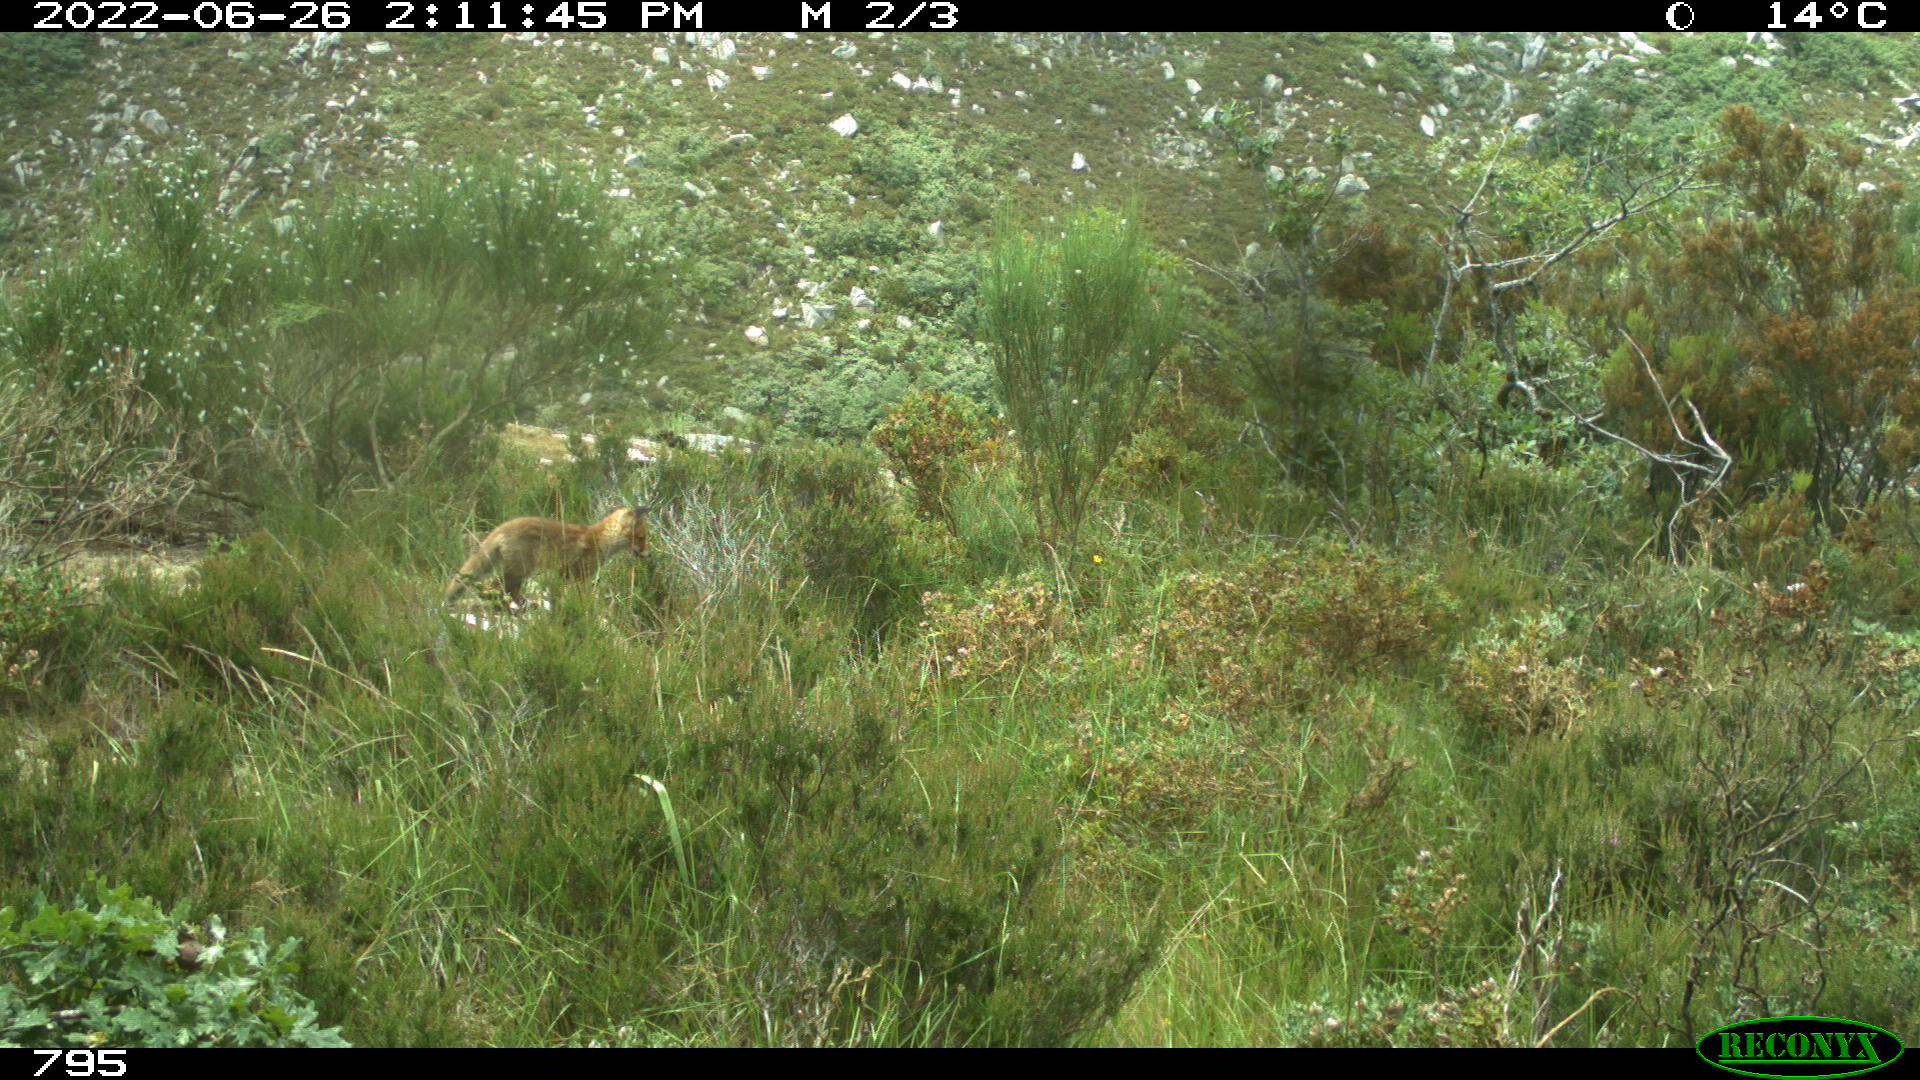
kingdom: Animalia
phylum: Chordata
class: Mammalia
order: Carnivora
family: Canidae
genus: Vulpes
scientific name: Vulpes vulpes
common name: Red fox
